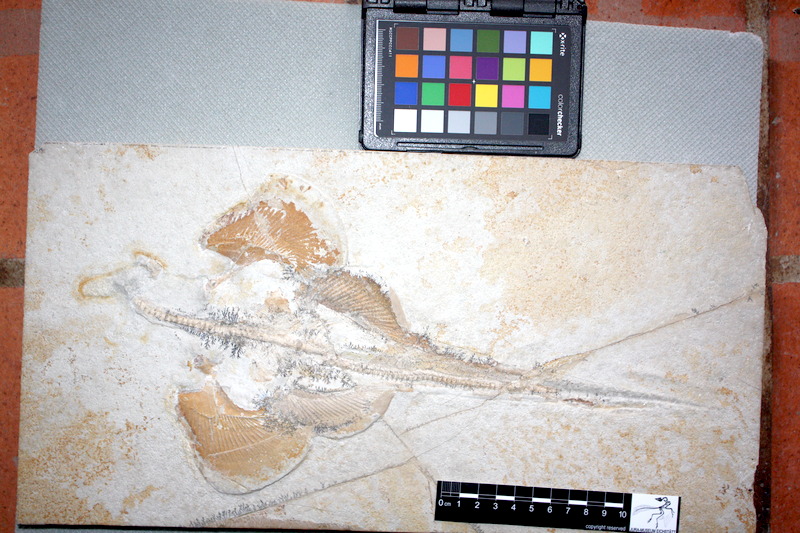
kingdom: Animalia
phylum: Chordata
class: Elasmobranchii
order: Squatiniformes
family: Pseudorhinidae
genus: Pseudorhina
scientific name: Pseudorhina
